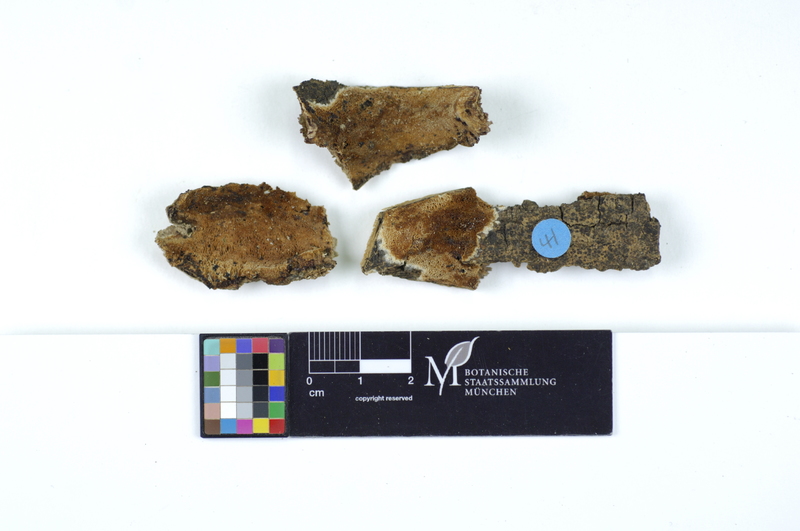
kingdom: Plantae
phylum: Tracheophyta
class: Magnoliopsida
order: Lamiales
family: Oleaceae
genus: Fraxinus
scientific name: Fraxinus
